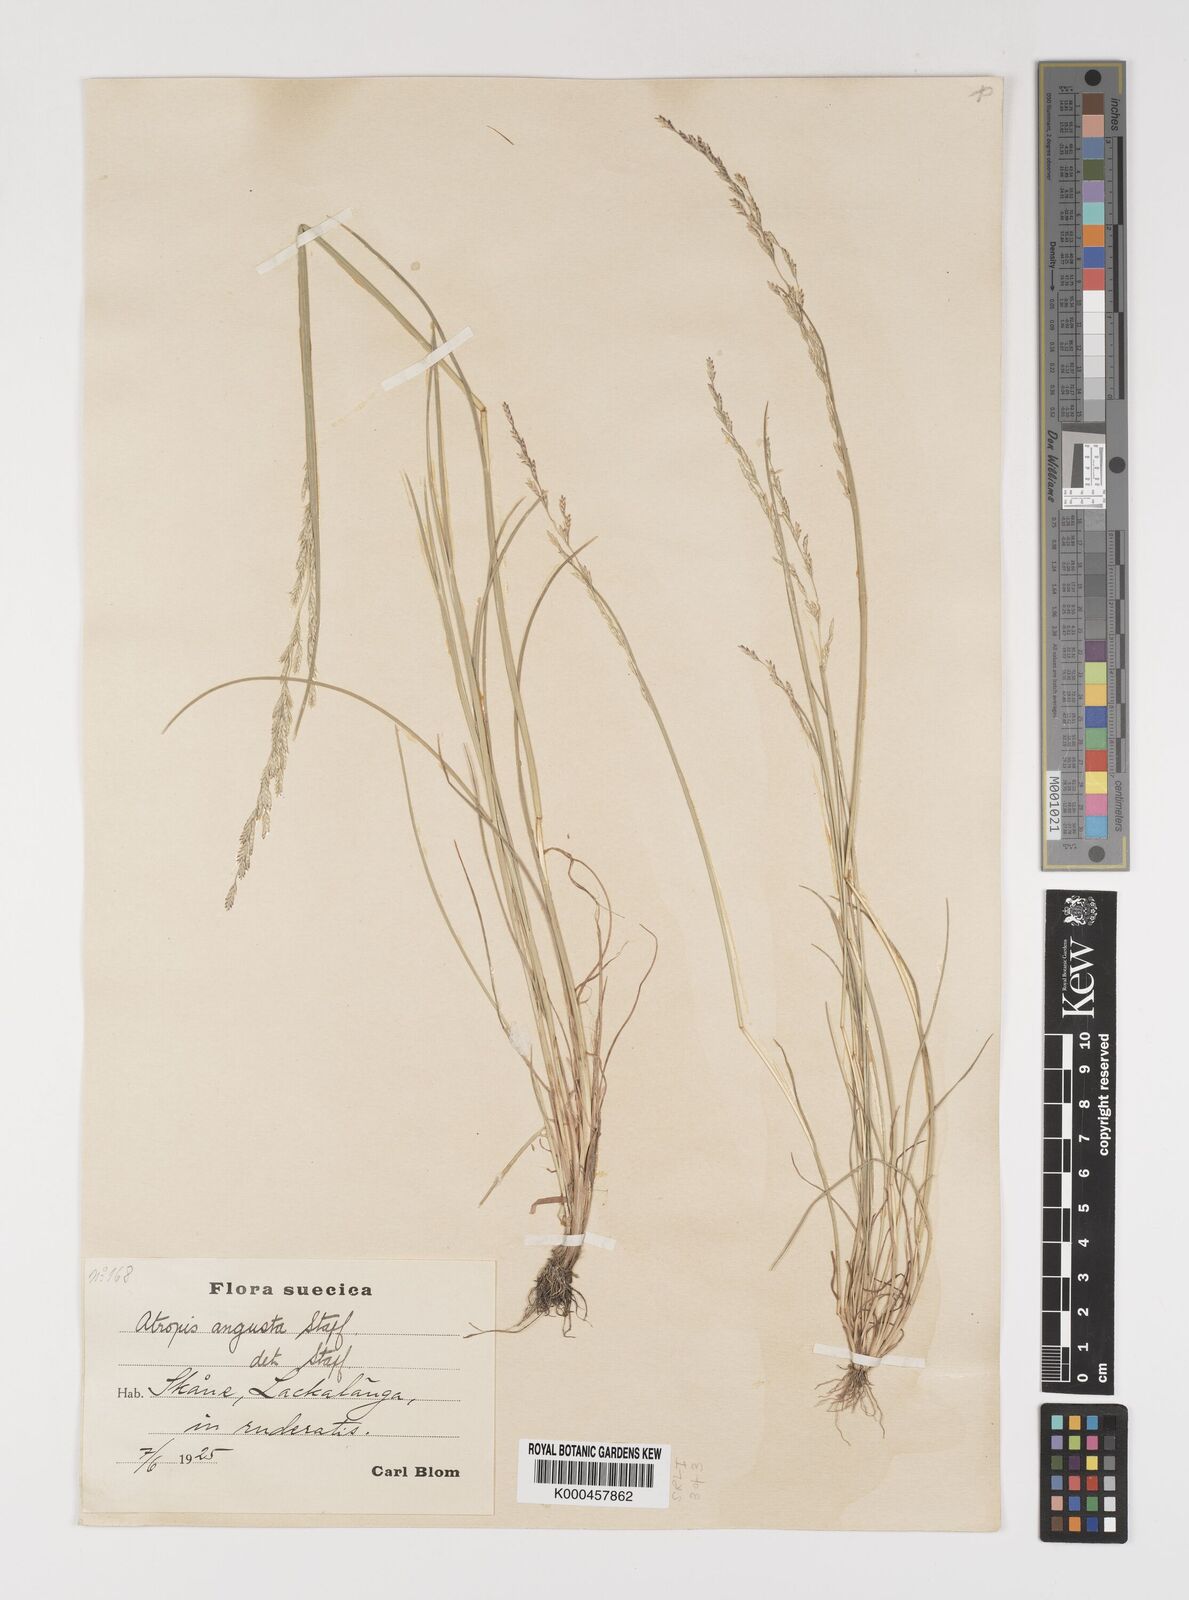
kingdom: Plantae
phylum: Tracheophyta
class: Liliopsida
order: Poales
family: Poaceae
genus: Puccinellia
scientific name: Puccinellia angustata
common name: Narrow alkaligrass
